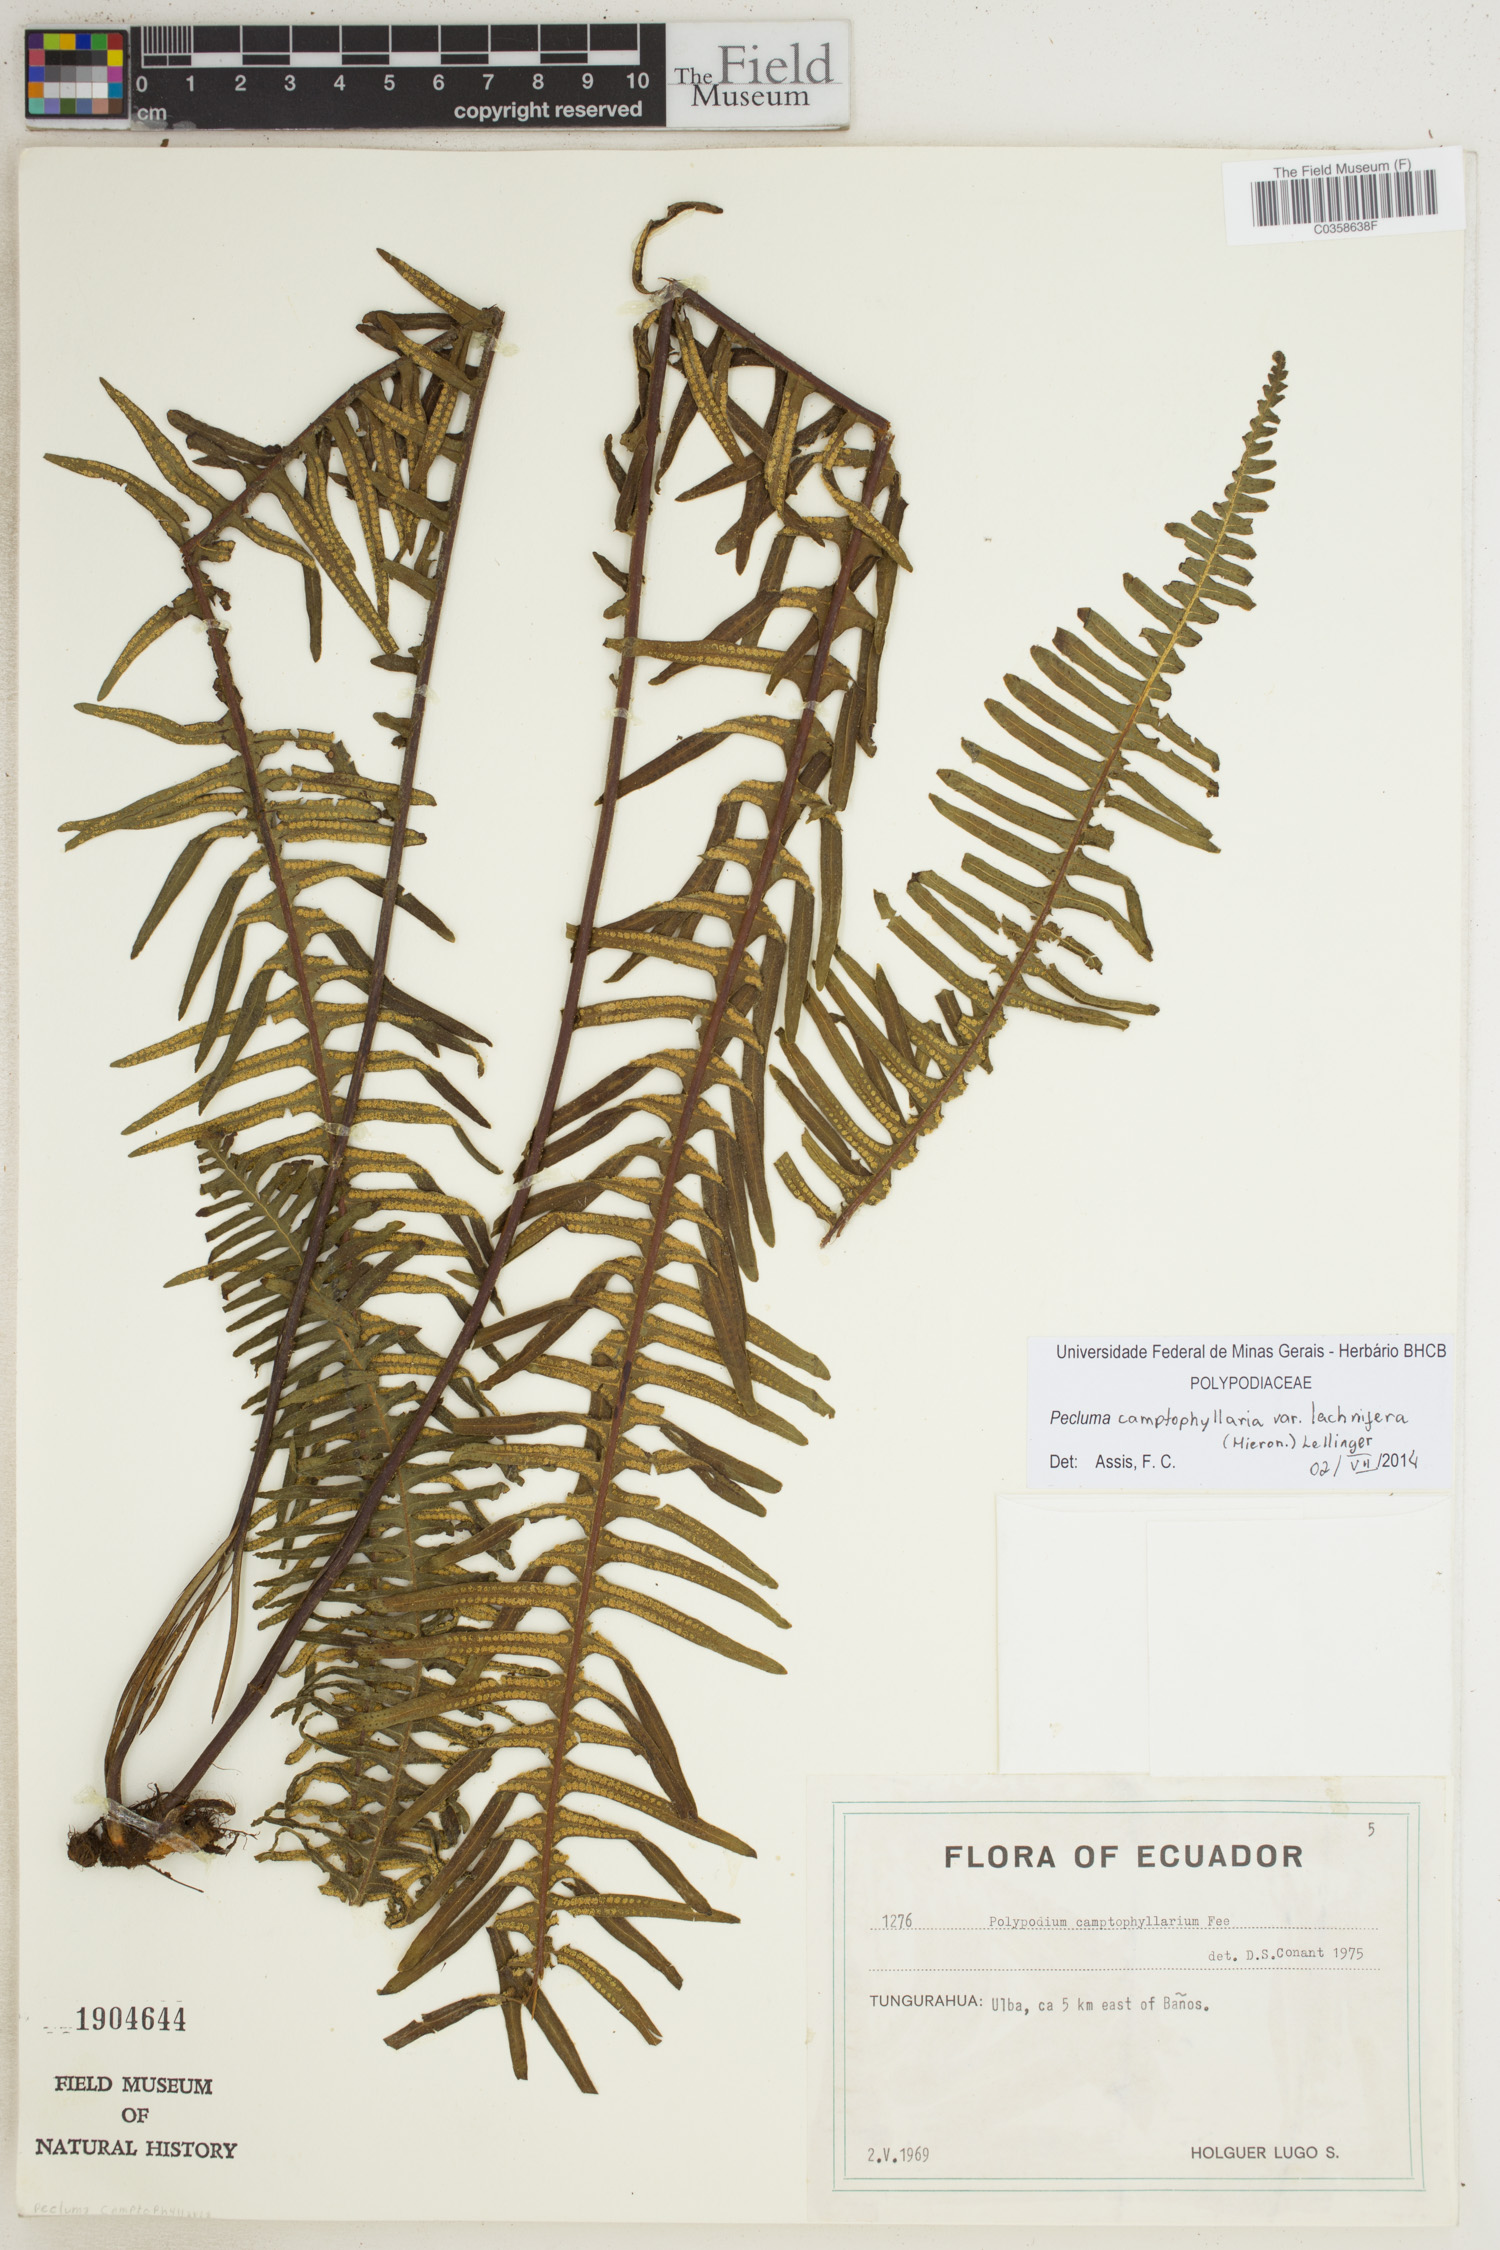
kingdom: Plantae
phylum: Tracheophyta
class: Polypodiopsida
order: Polypodiales
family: Polypodiaceae
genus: Pecluma
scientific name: Pecluma camptophyllaria
